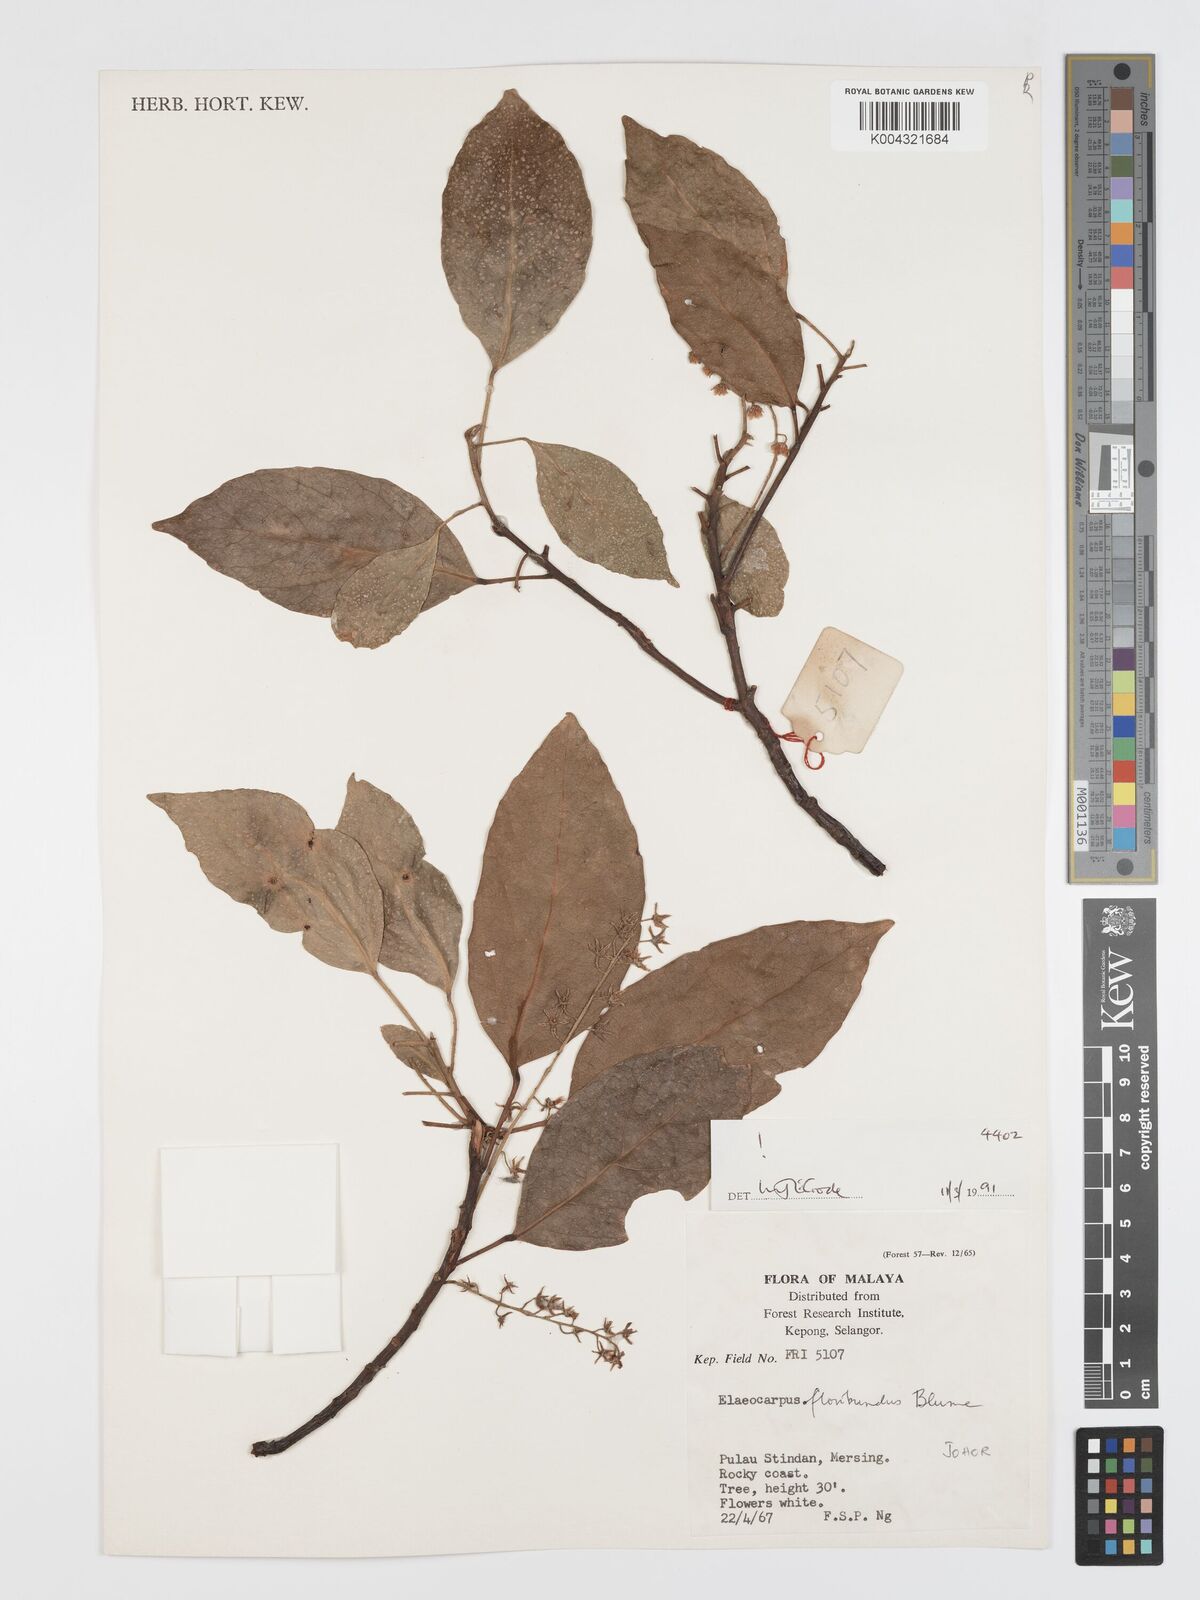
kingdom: Plantae
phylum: Tracheophyta
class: Magnoliopsida
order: Oxalidales
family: Elaeocarpaceae
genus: Elaeocarpus
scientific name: Elaeocarpus floribundus
